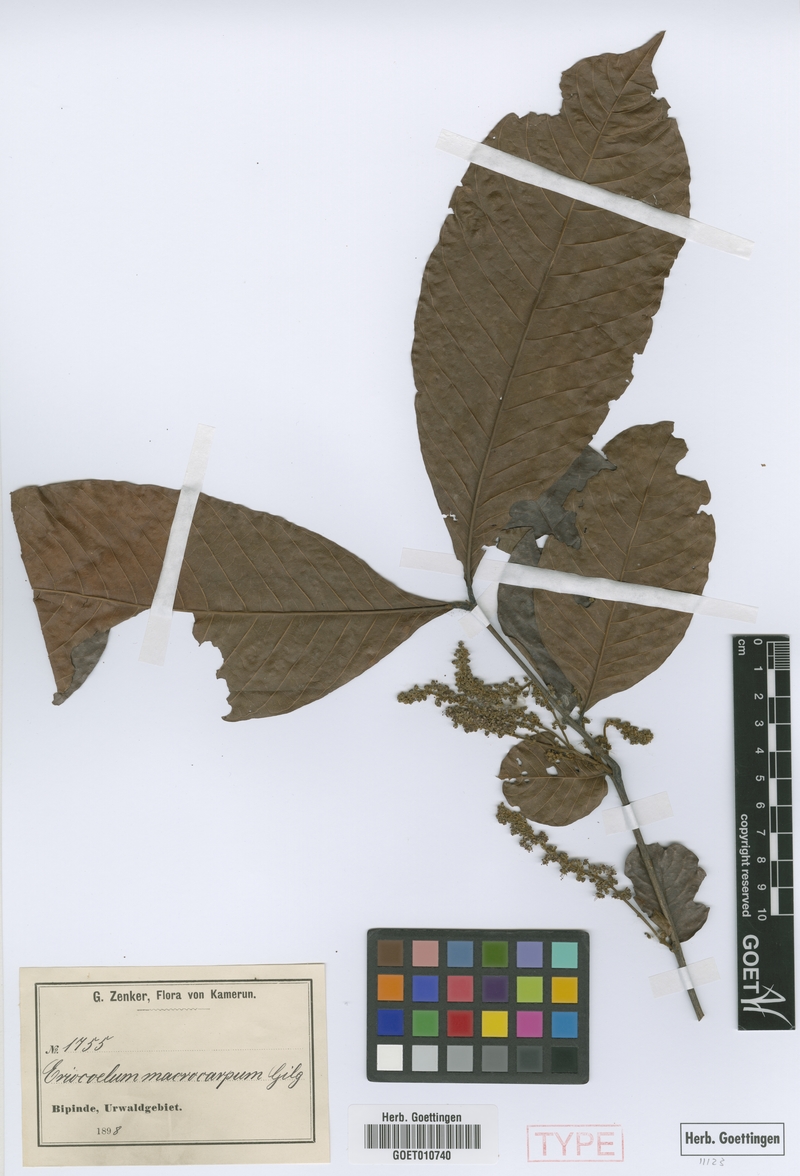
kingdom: Plantae
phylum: Tracheophyta
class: Magnoliopsida
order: Sapindales
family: Sapindaceae
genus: Eriocoelum
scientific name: Eriocoelum macrocarpum
